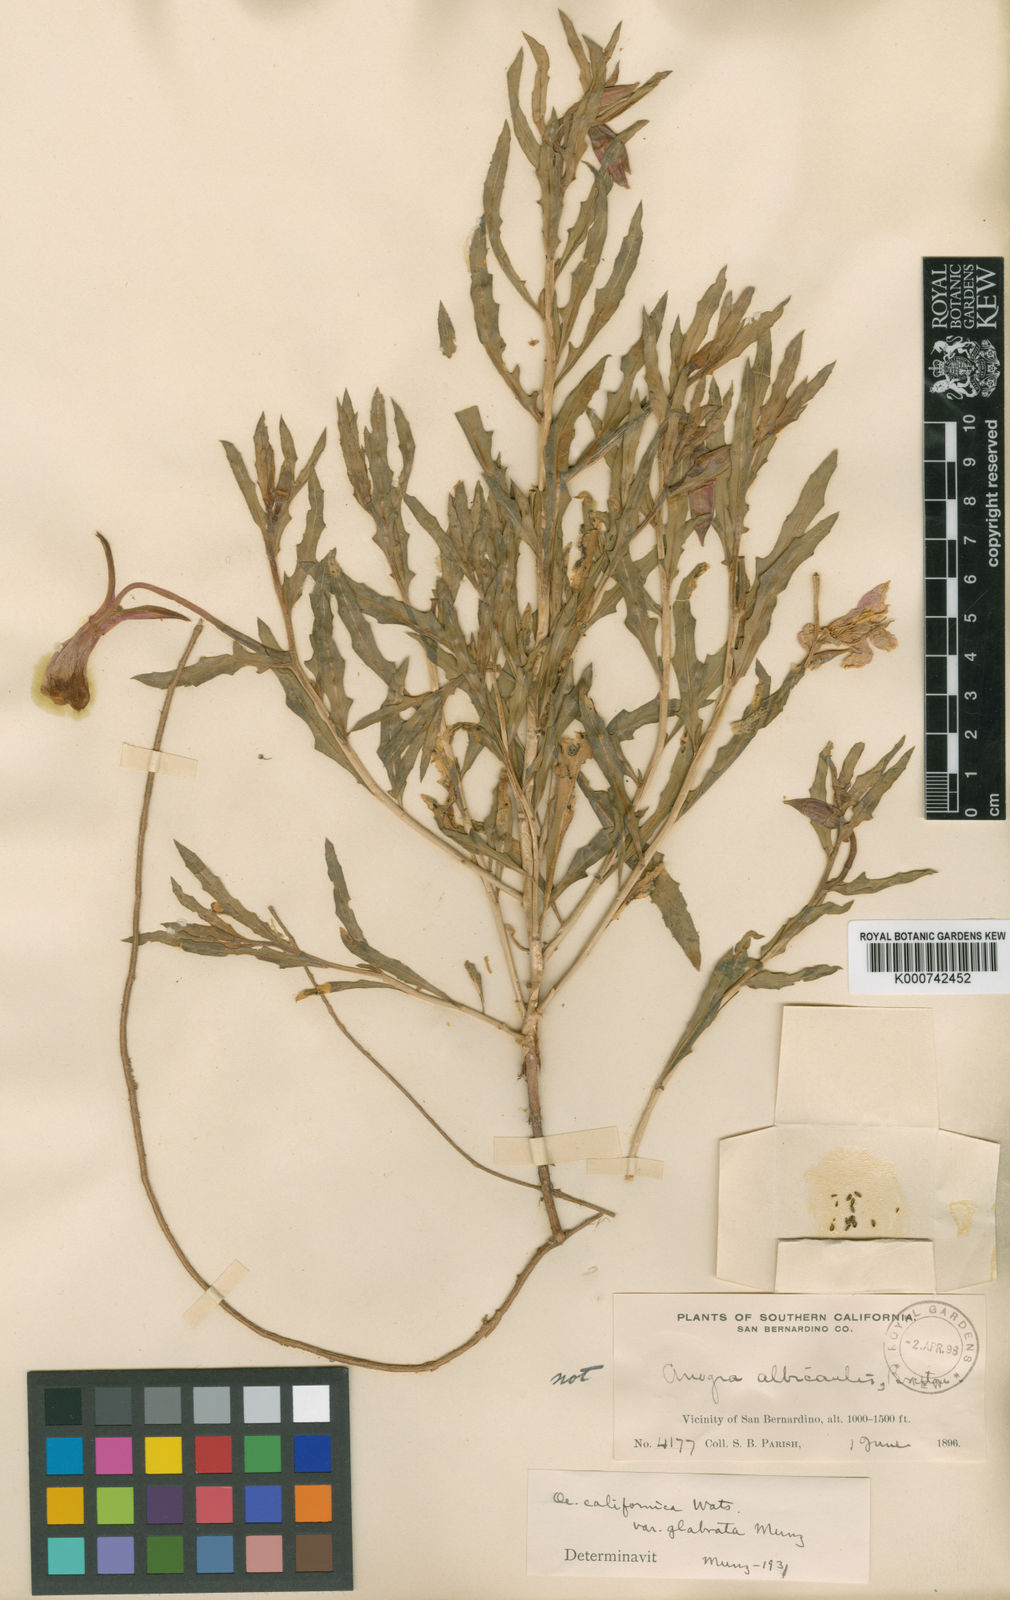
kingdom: Plantae
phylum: Tracheophyta
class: Magnoliopsida
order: Myrtales
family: Onagraceae
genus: Oenothera
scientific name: Oenothera
